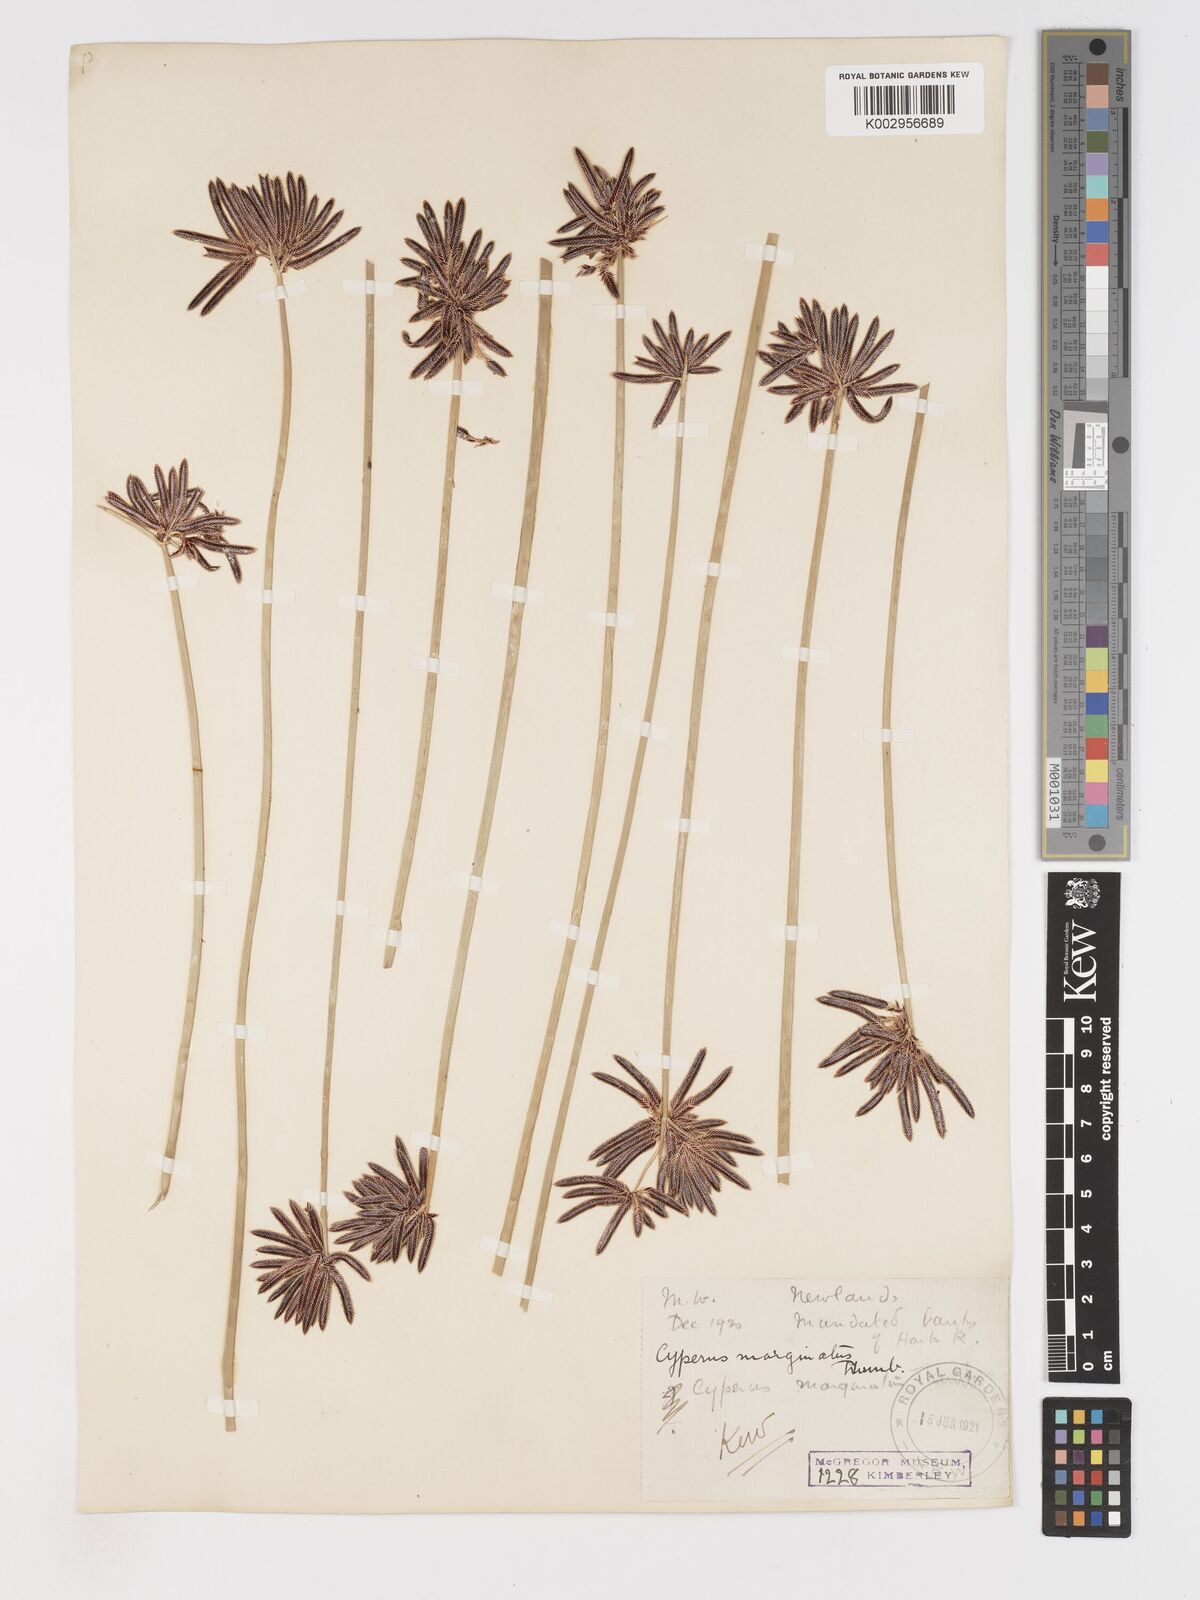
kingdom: Plantae
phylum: Tracheophyta
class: Liliopsida
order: Poales
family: Cyperaceae
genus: Cyperus
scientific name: Cyperus marginatus
